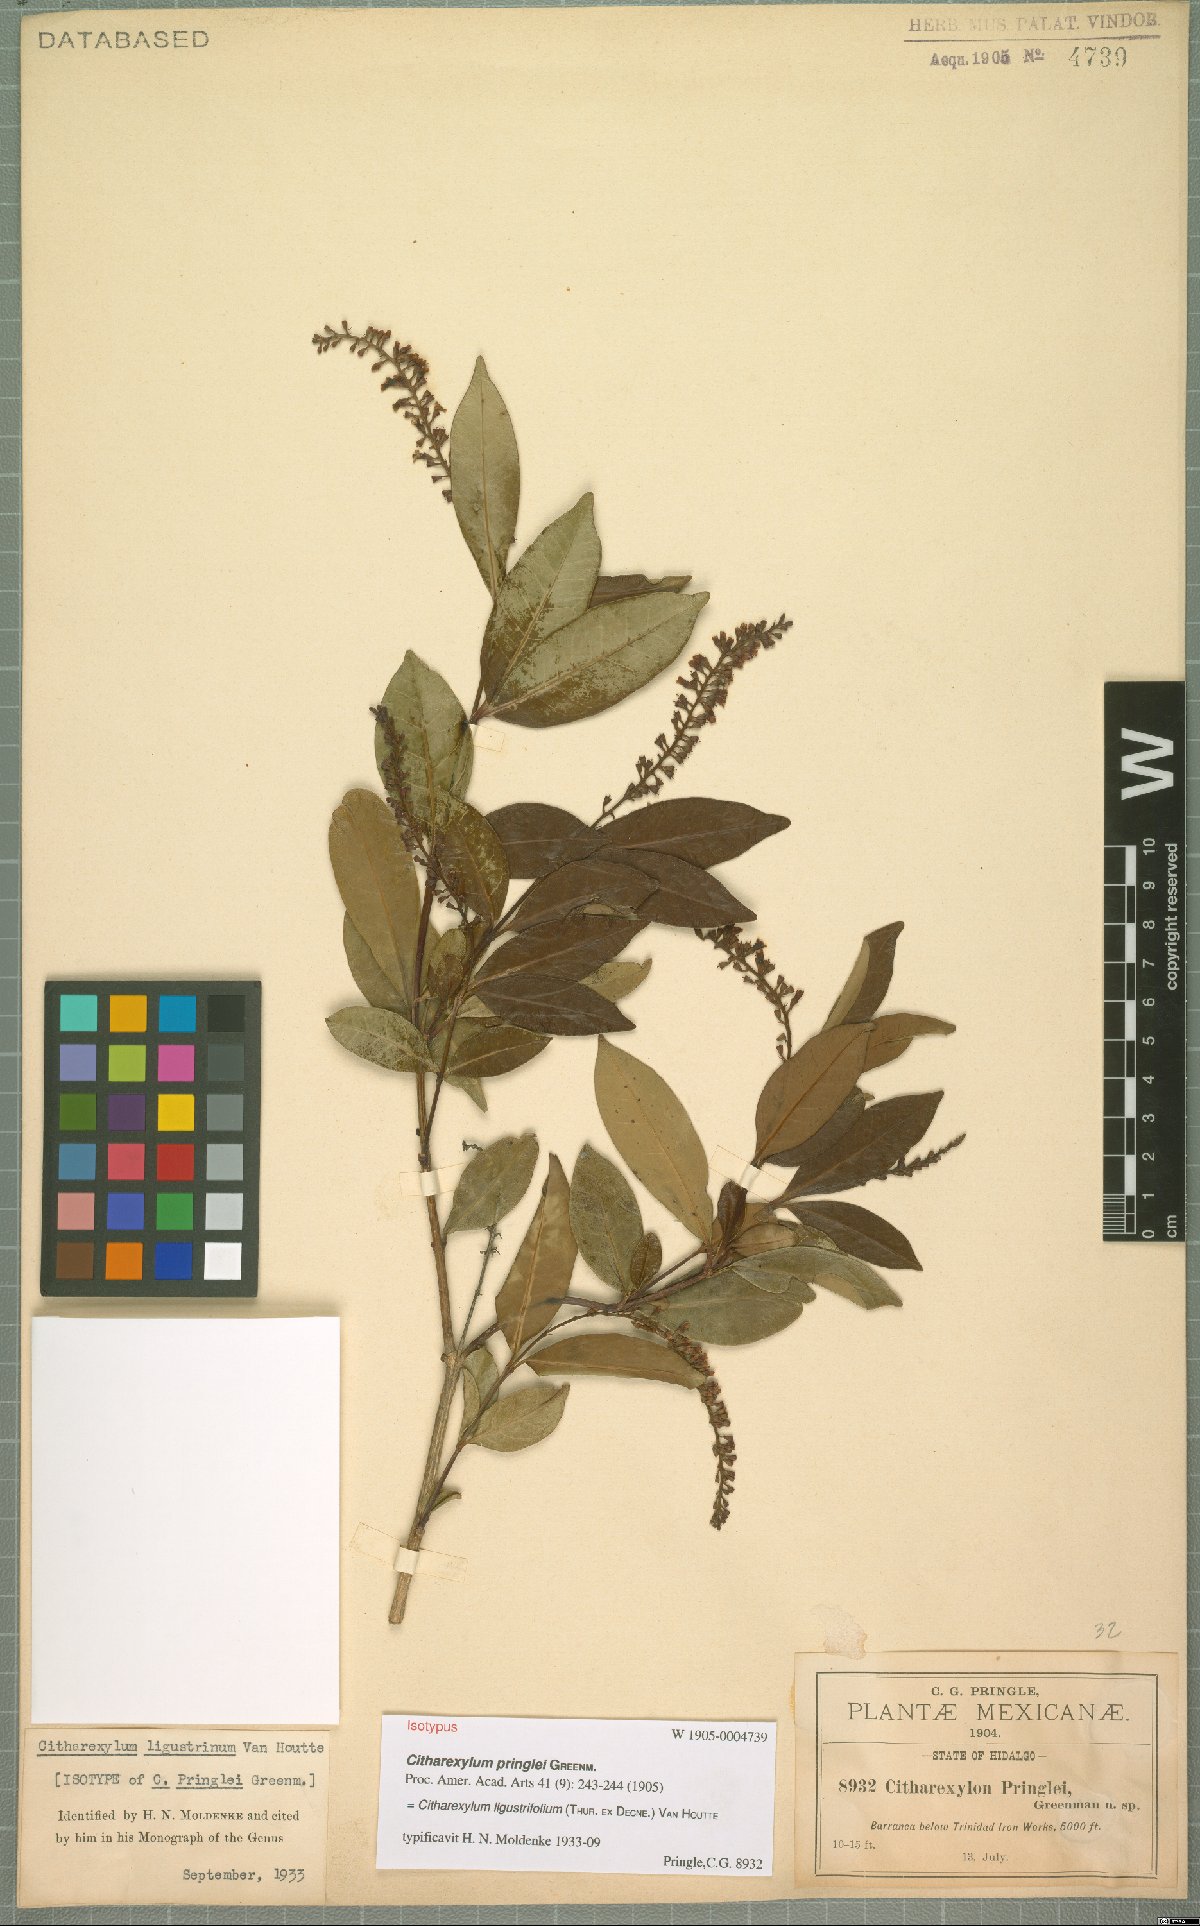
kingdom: Plantae
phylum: Tracheophyta
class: Magnoliopsida
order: Lamiales
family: Verbenaceae
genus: Citharexylum
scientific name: Citharexylum ligustrifolium
